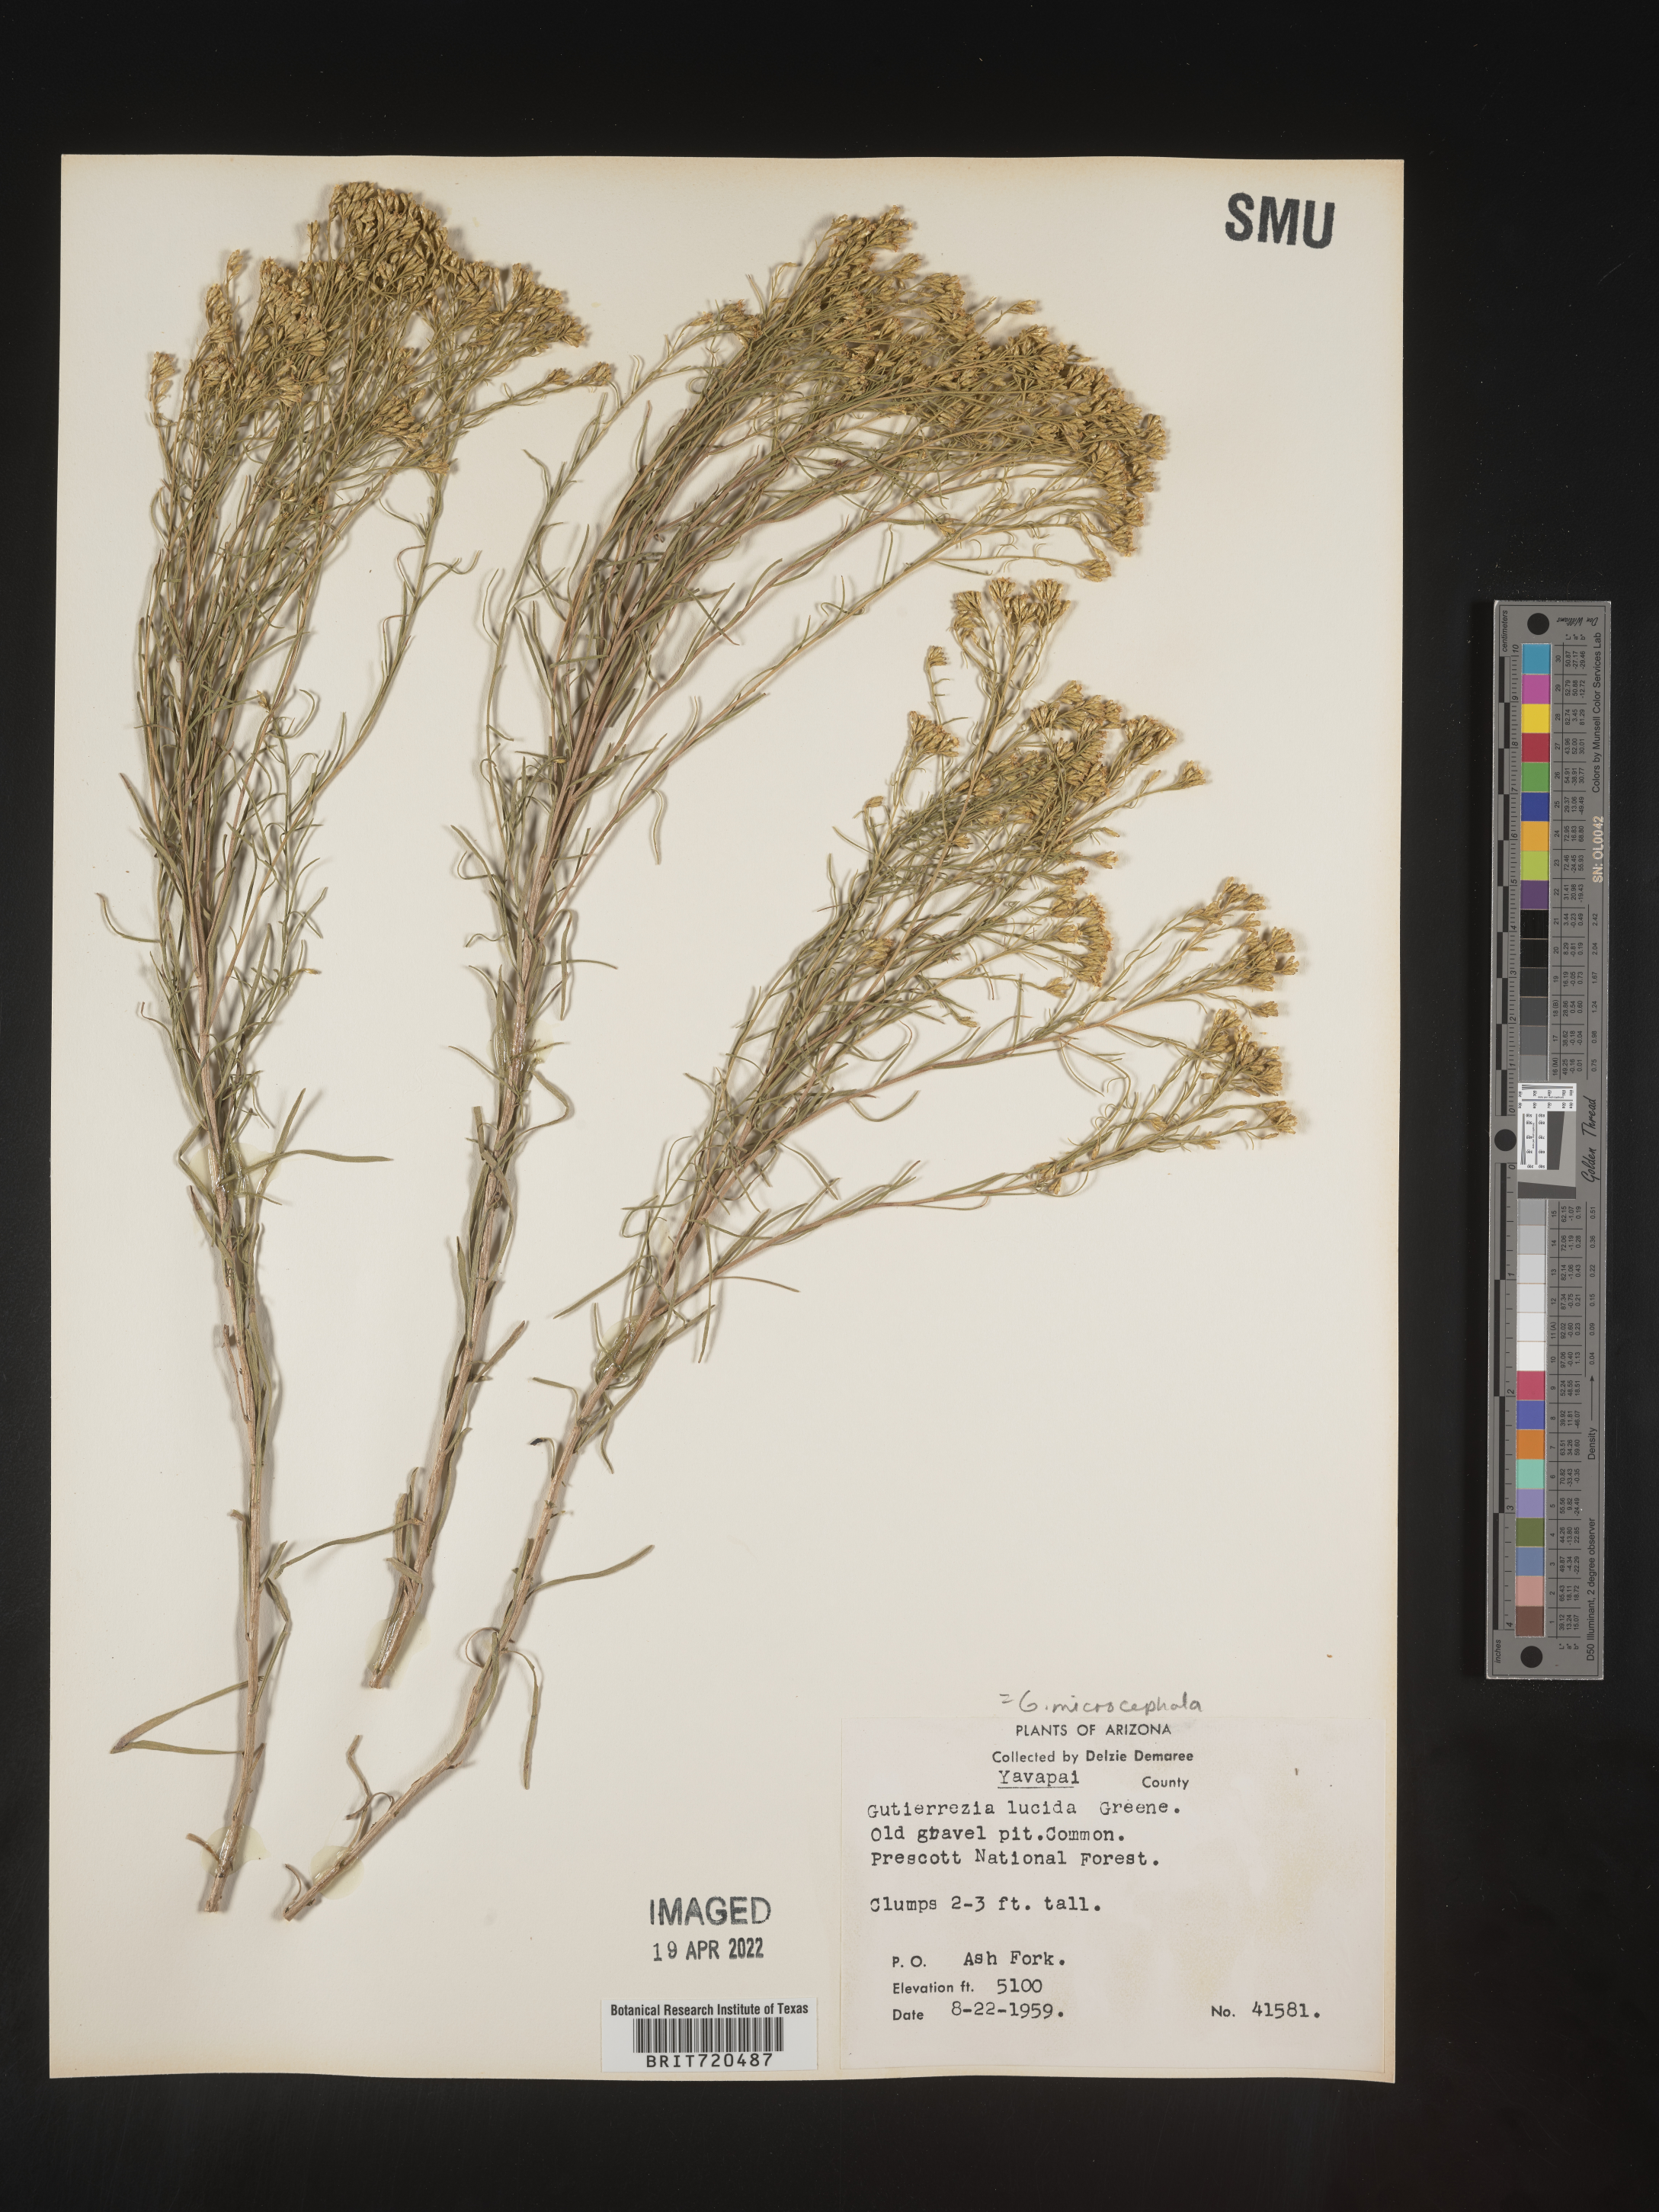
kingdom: Plantae
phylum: Tracheophyta
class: Magnoliopsida
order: Asterales
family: Asteraceae
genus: Gutierrezia
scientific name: Gutierrezia microcephala
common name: Thread snakeweed
